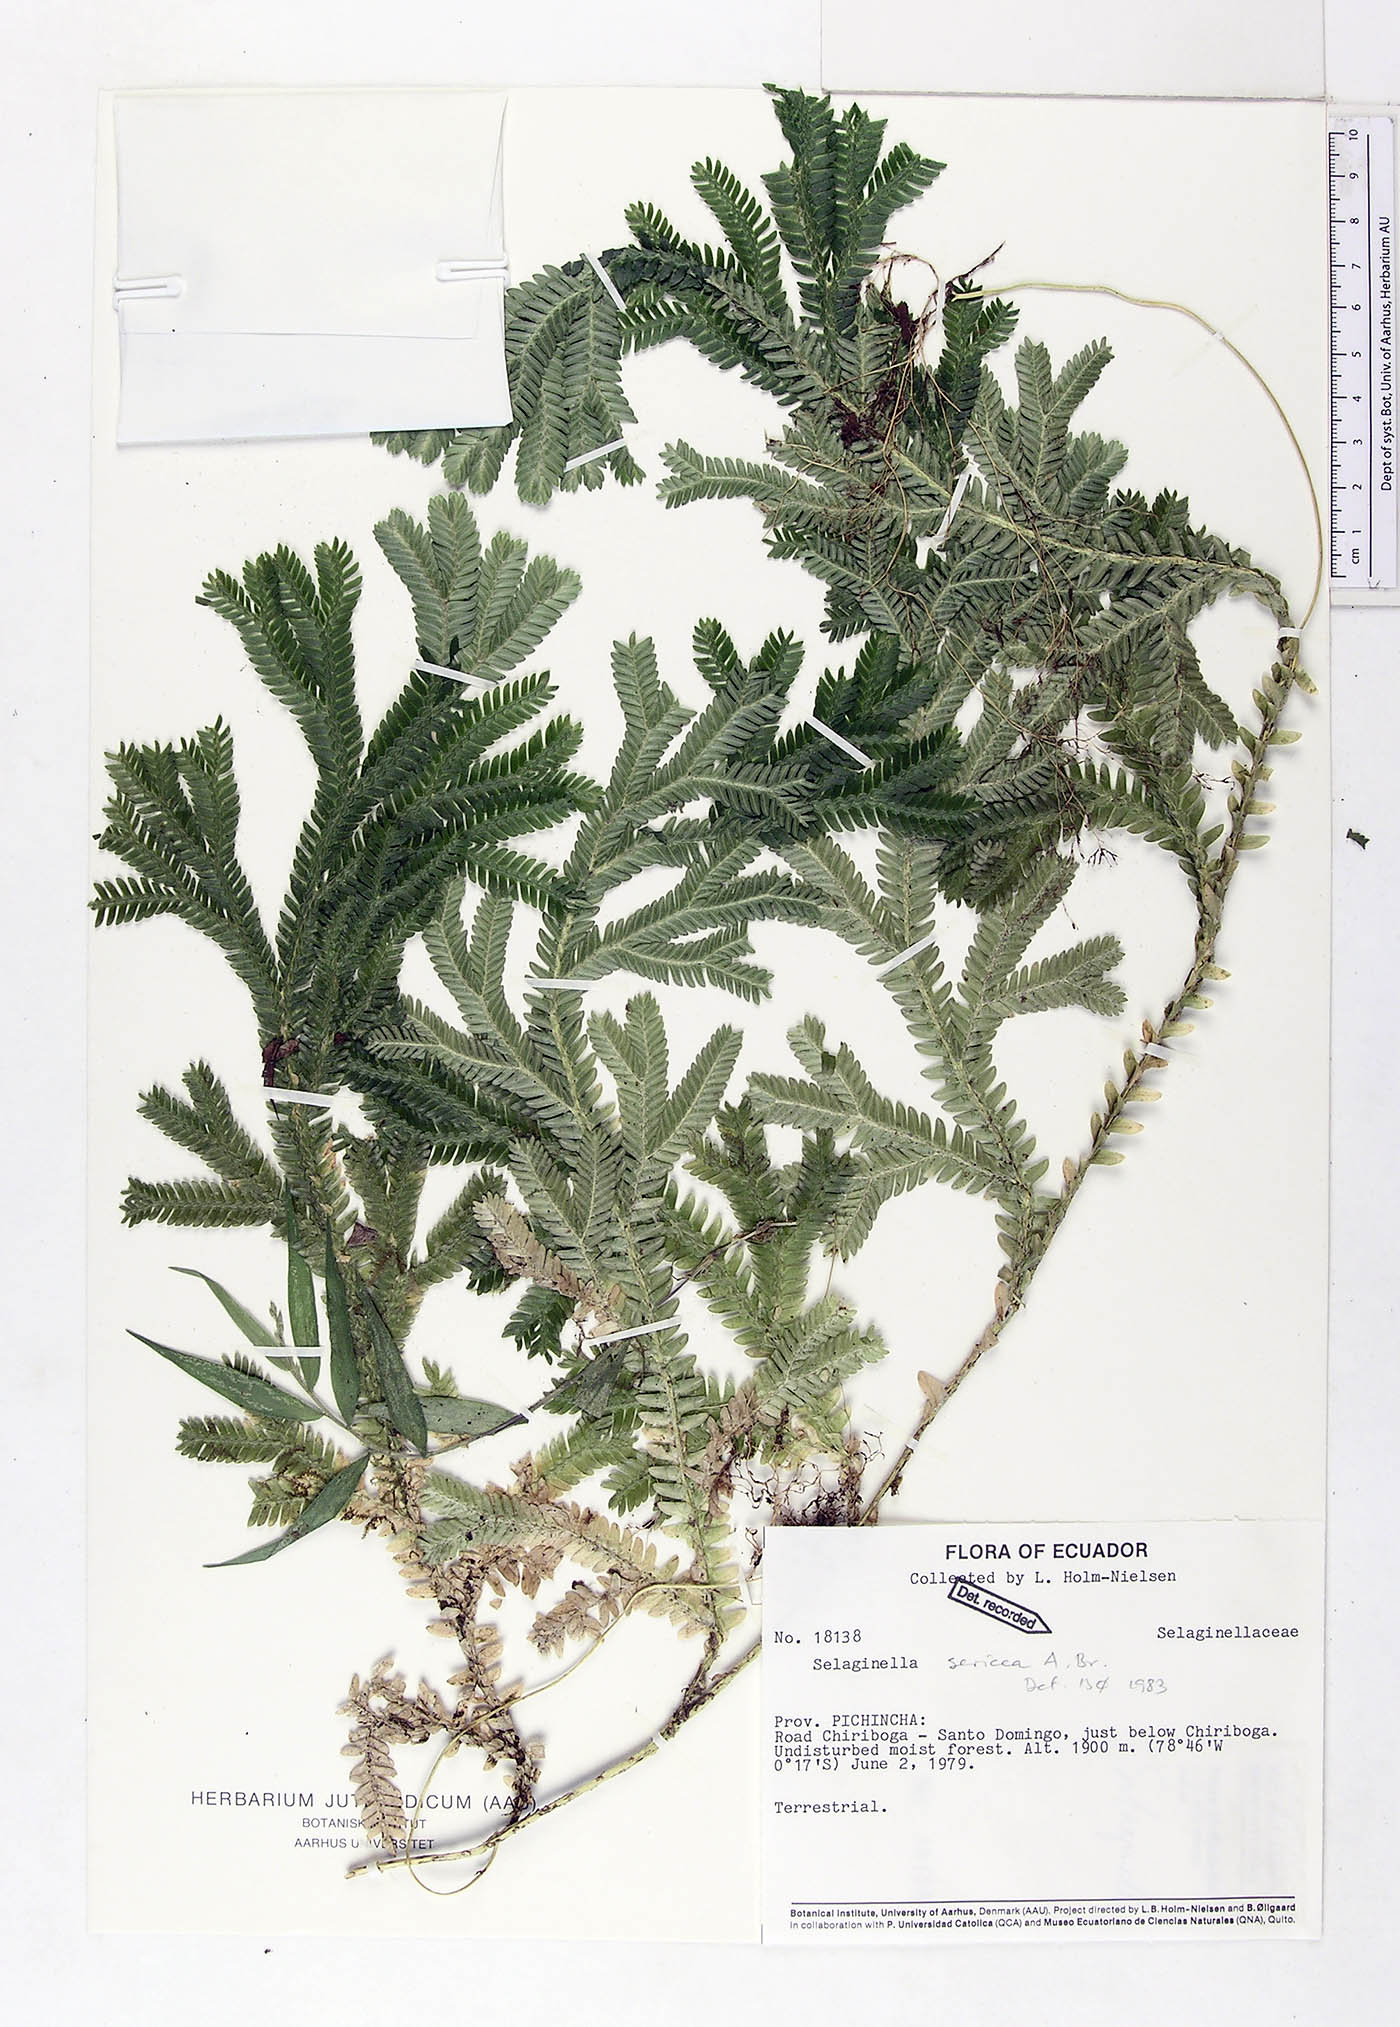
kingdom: Plantae
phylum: Tracheophyta
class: Lycopodiopsida
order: Selaginellales
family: Selaginellaceae
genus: Selaginella
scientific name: Selaginella sericea
